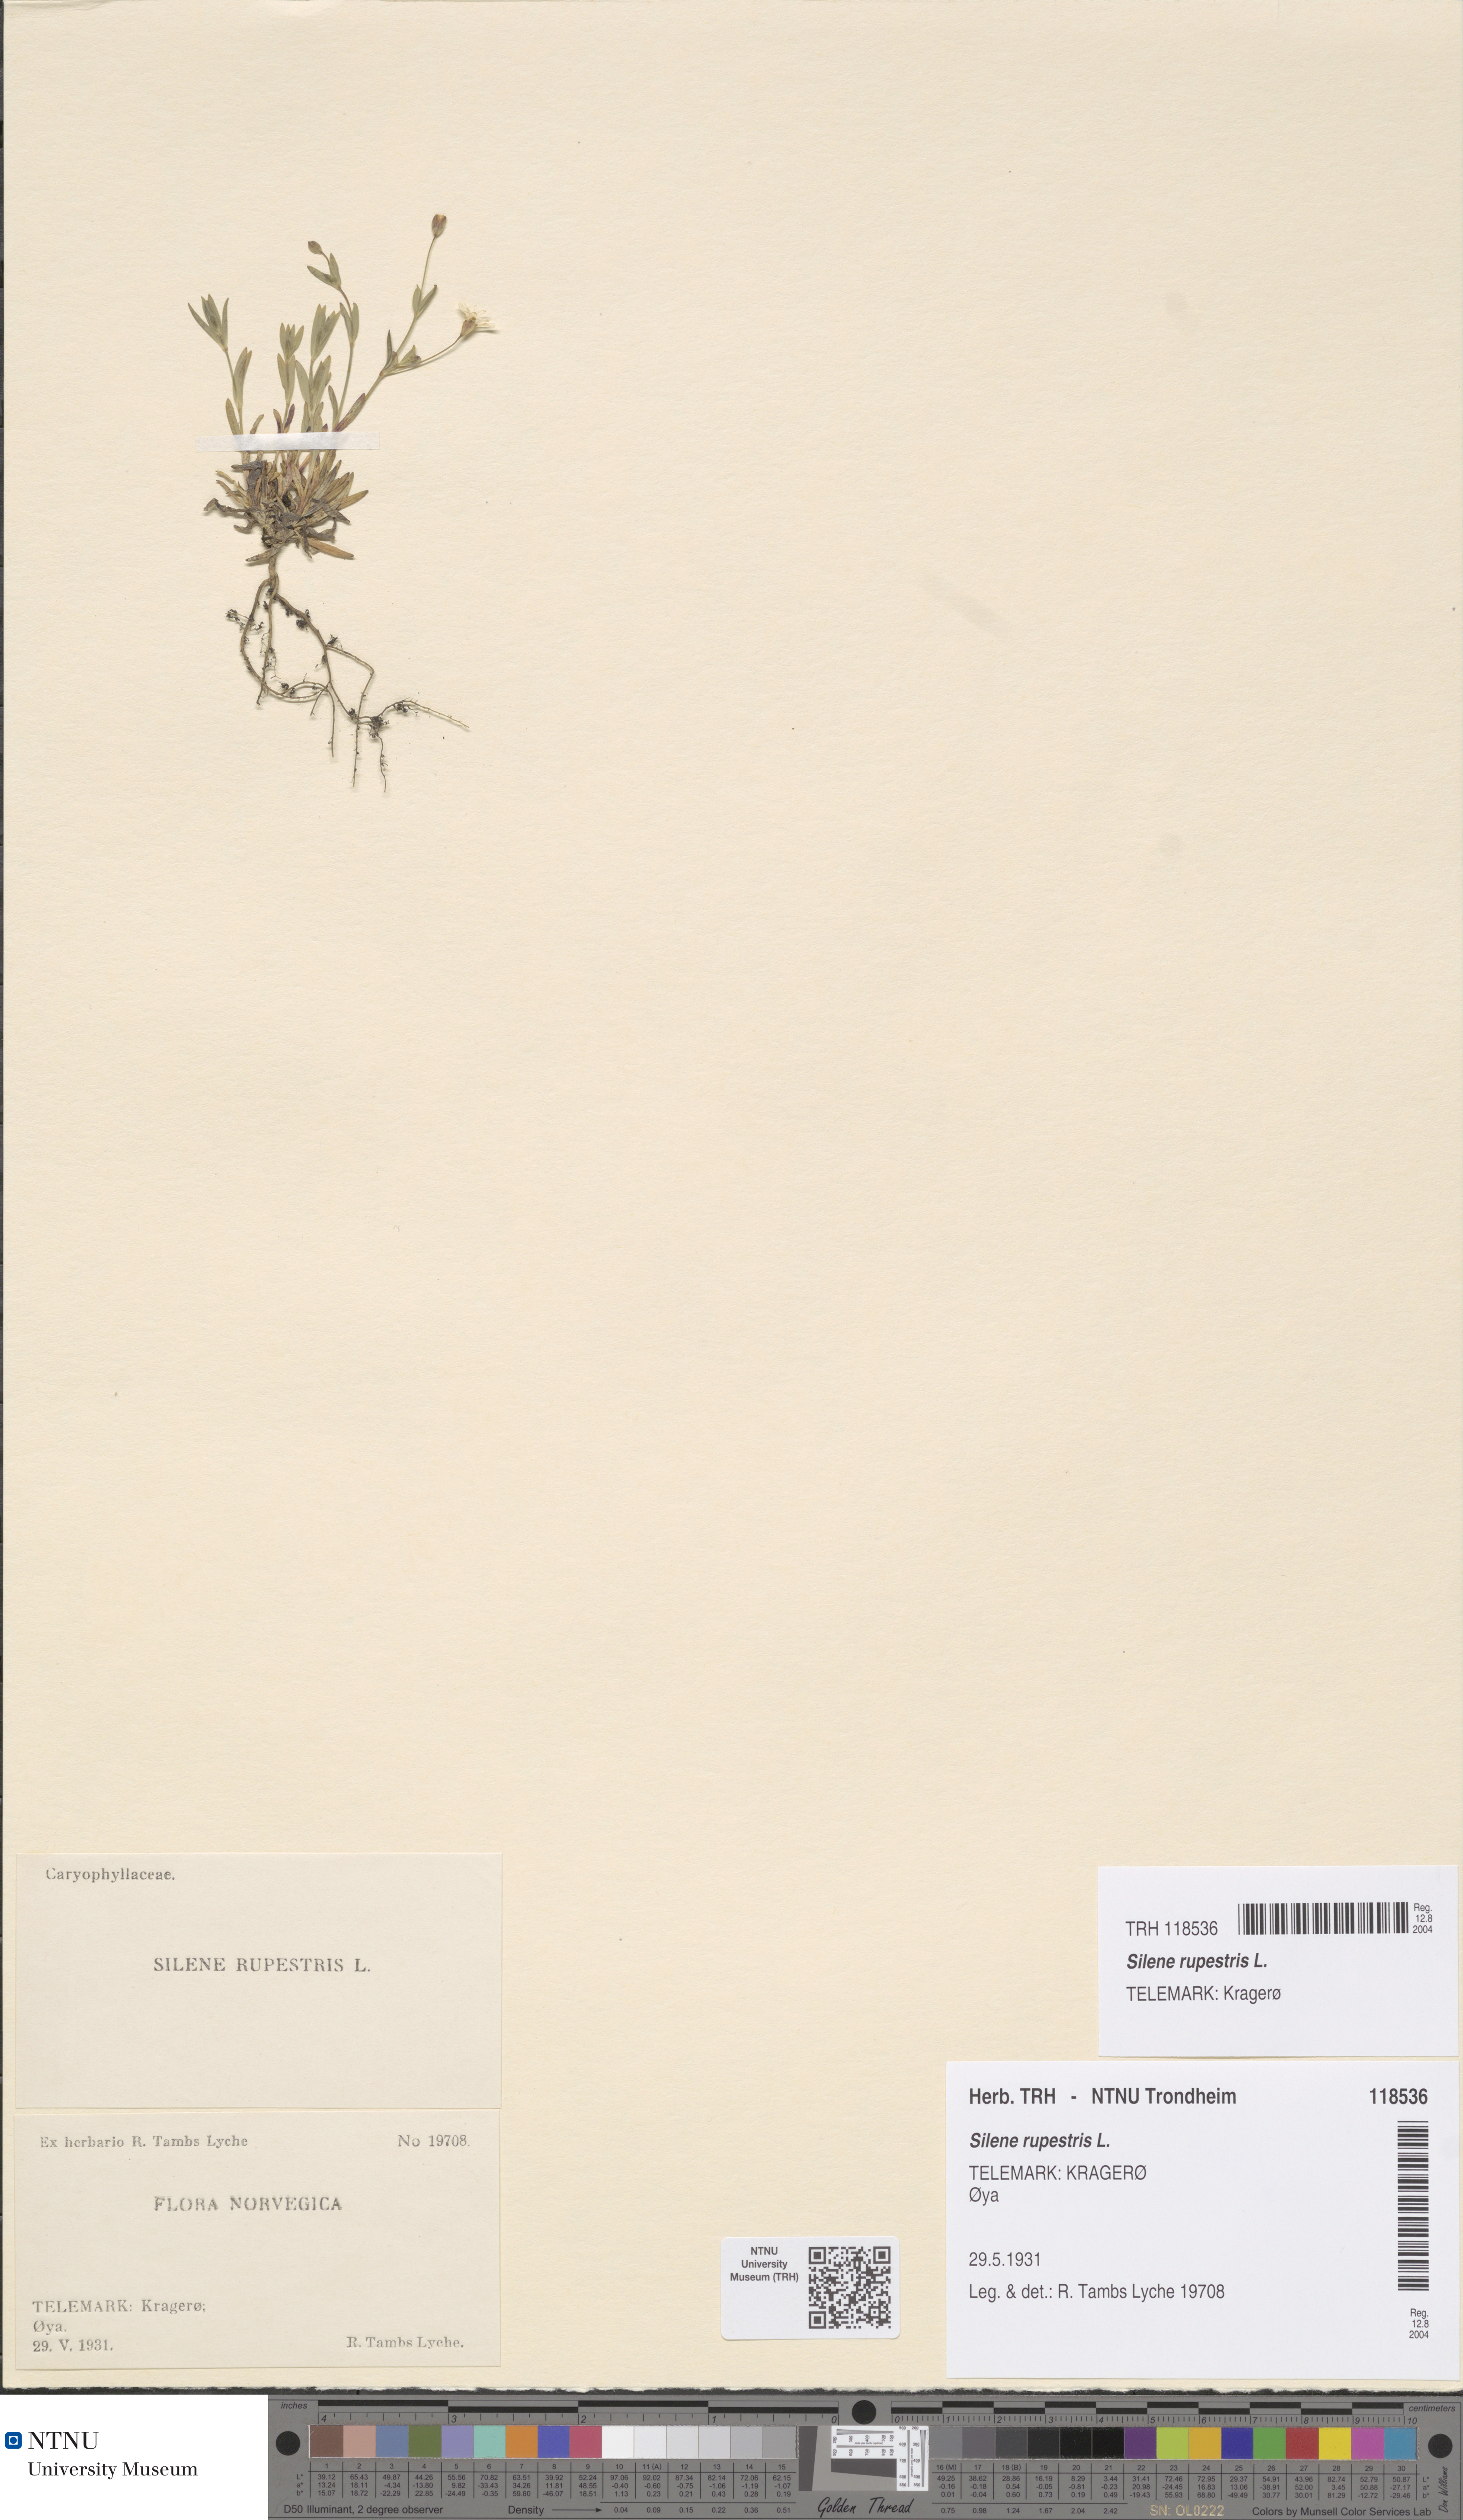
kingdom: Plantae
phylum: Tracheophyta
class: Magnoliopsida
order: Caryophyllales
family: Caryophyllaceae
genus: Atocion
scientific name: Atocion rupestre
